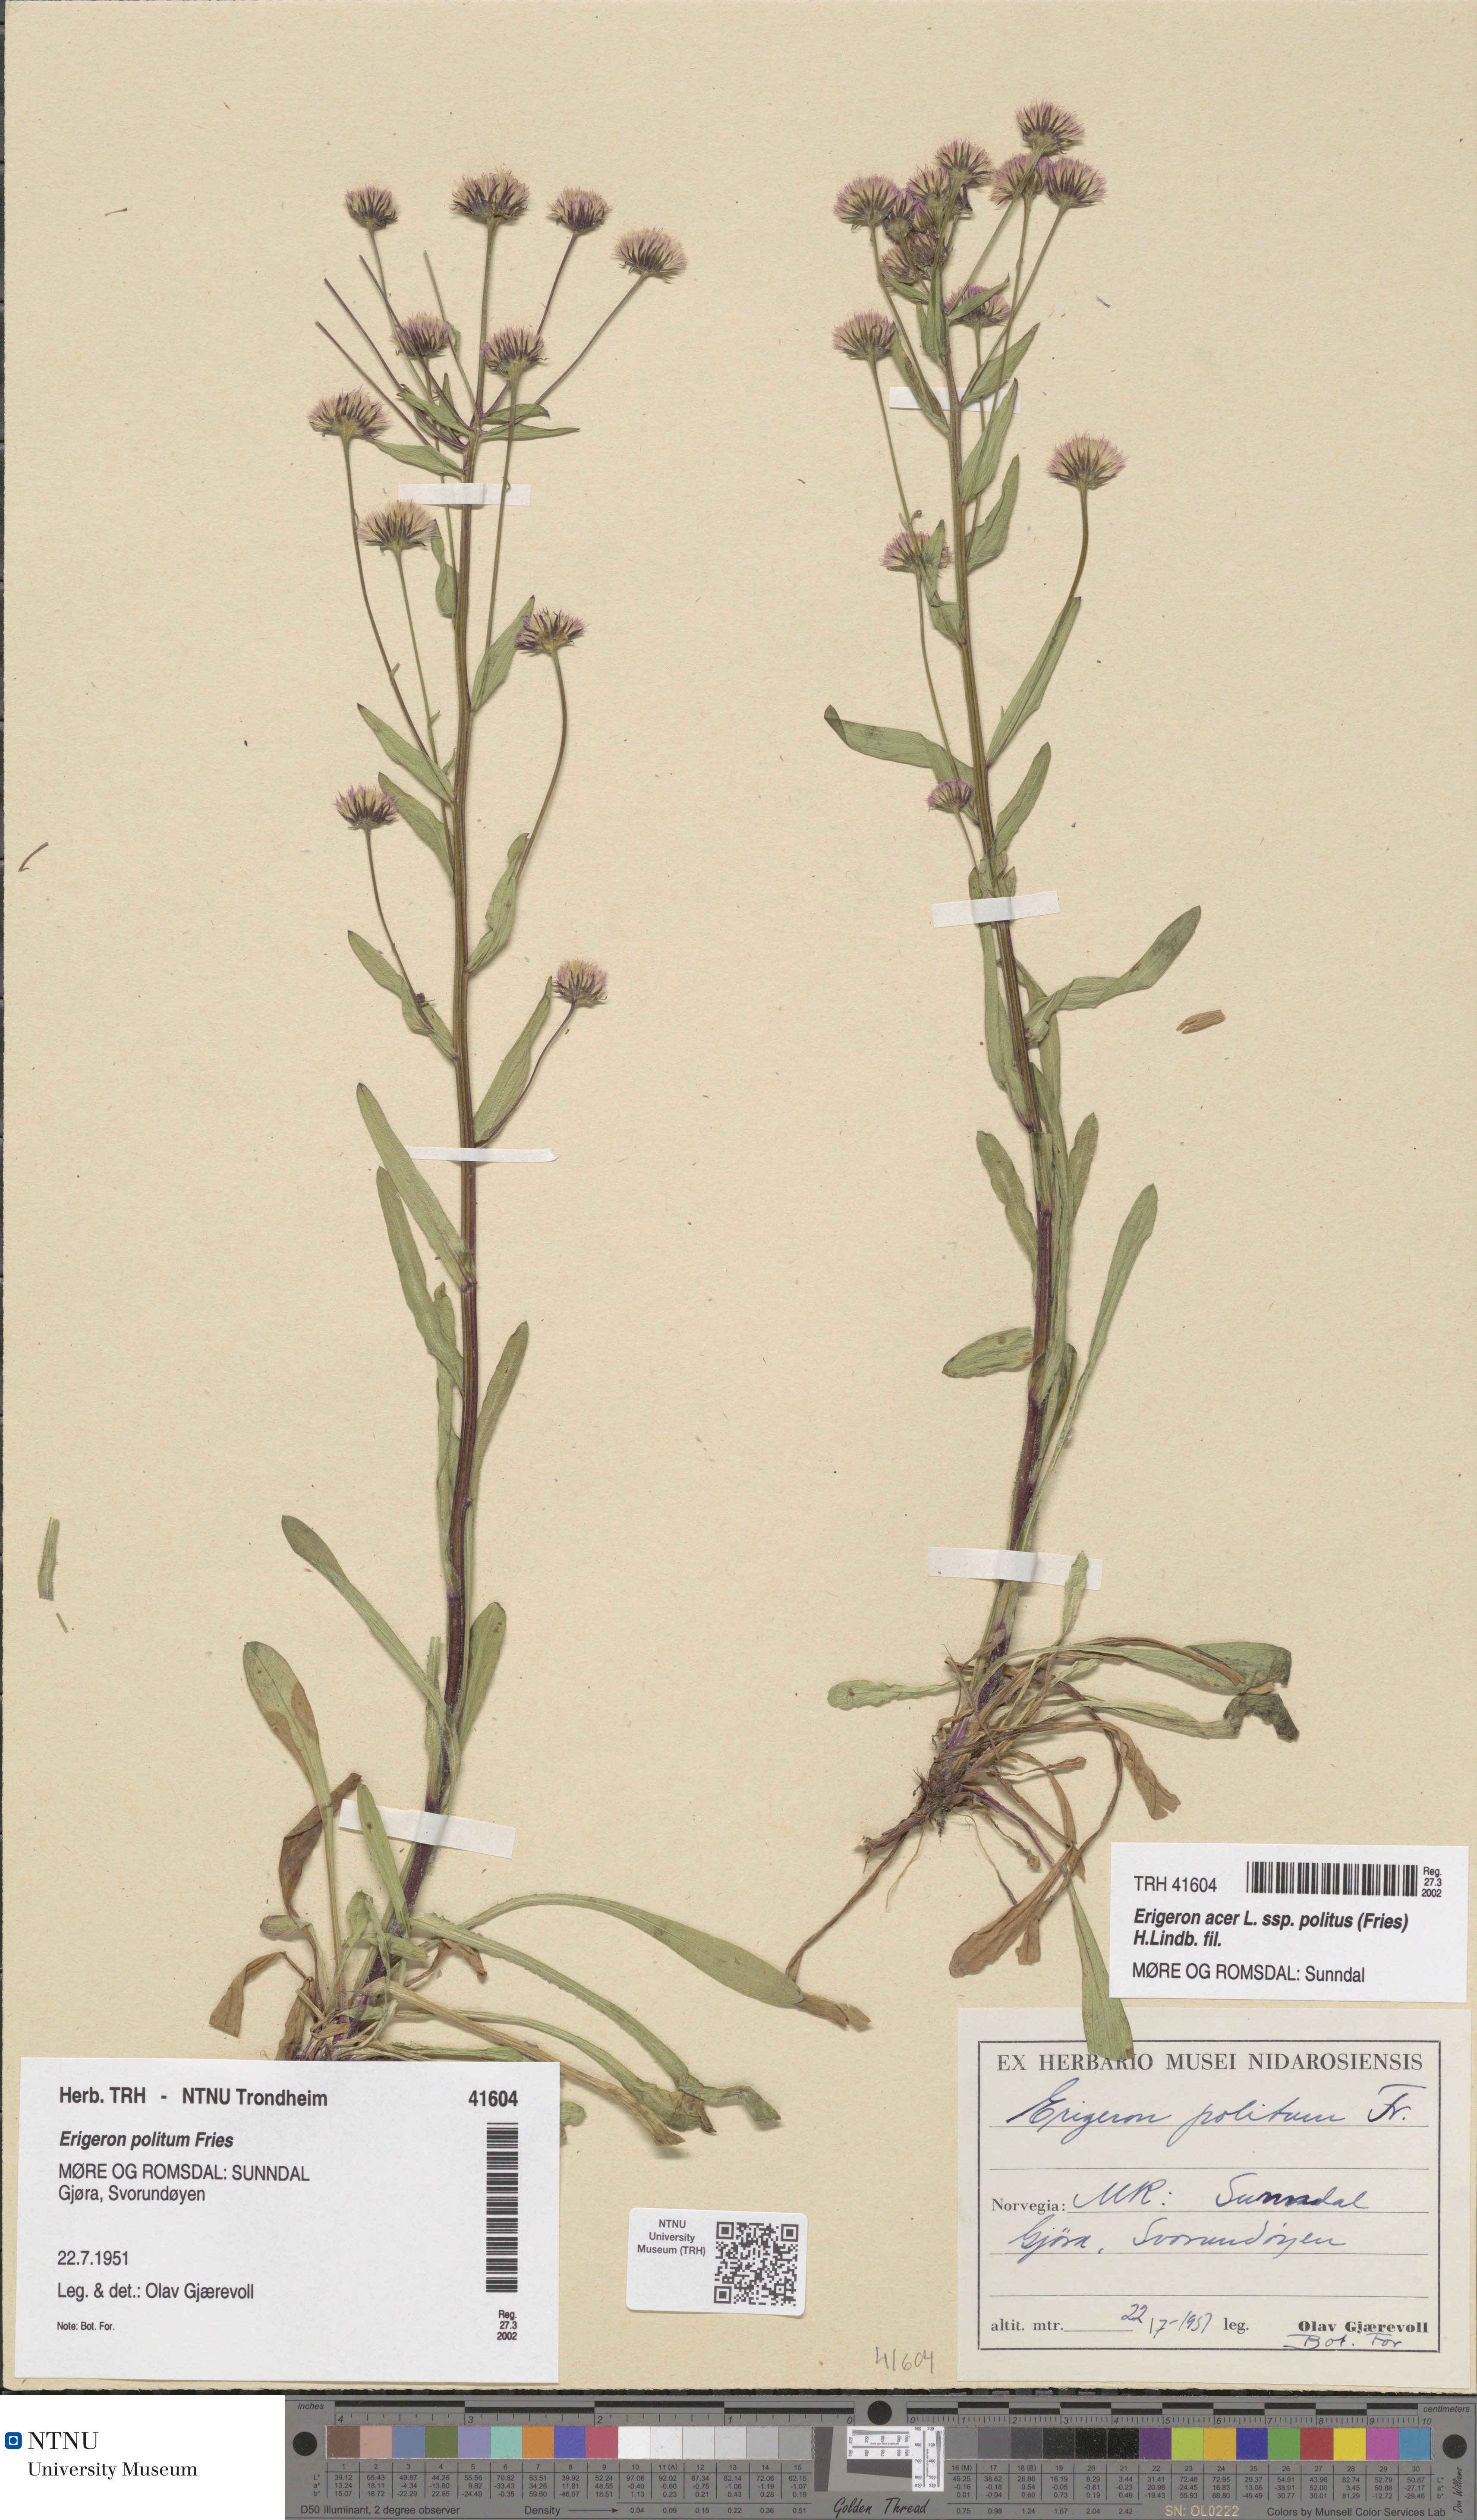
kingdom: Plantae
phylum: Tracheophyta
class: Magnoliopsida
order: Asterales
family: Asteraceae
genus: Erigeron
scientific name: Erigeron politus
